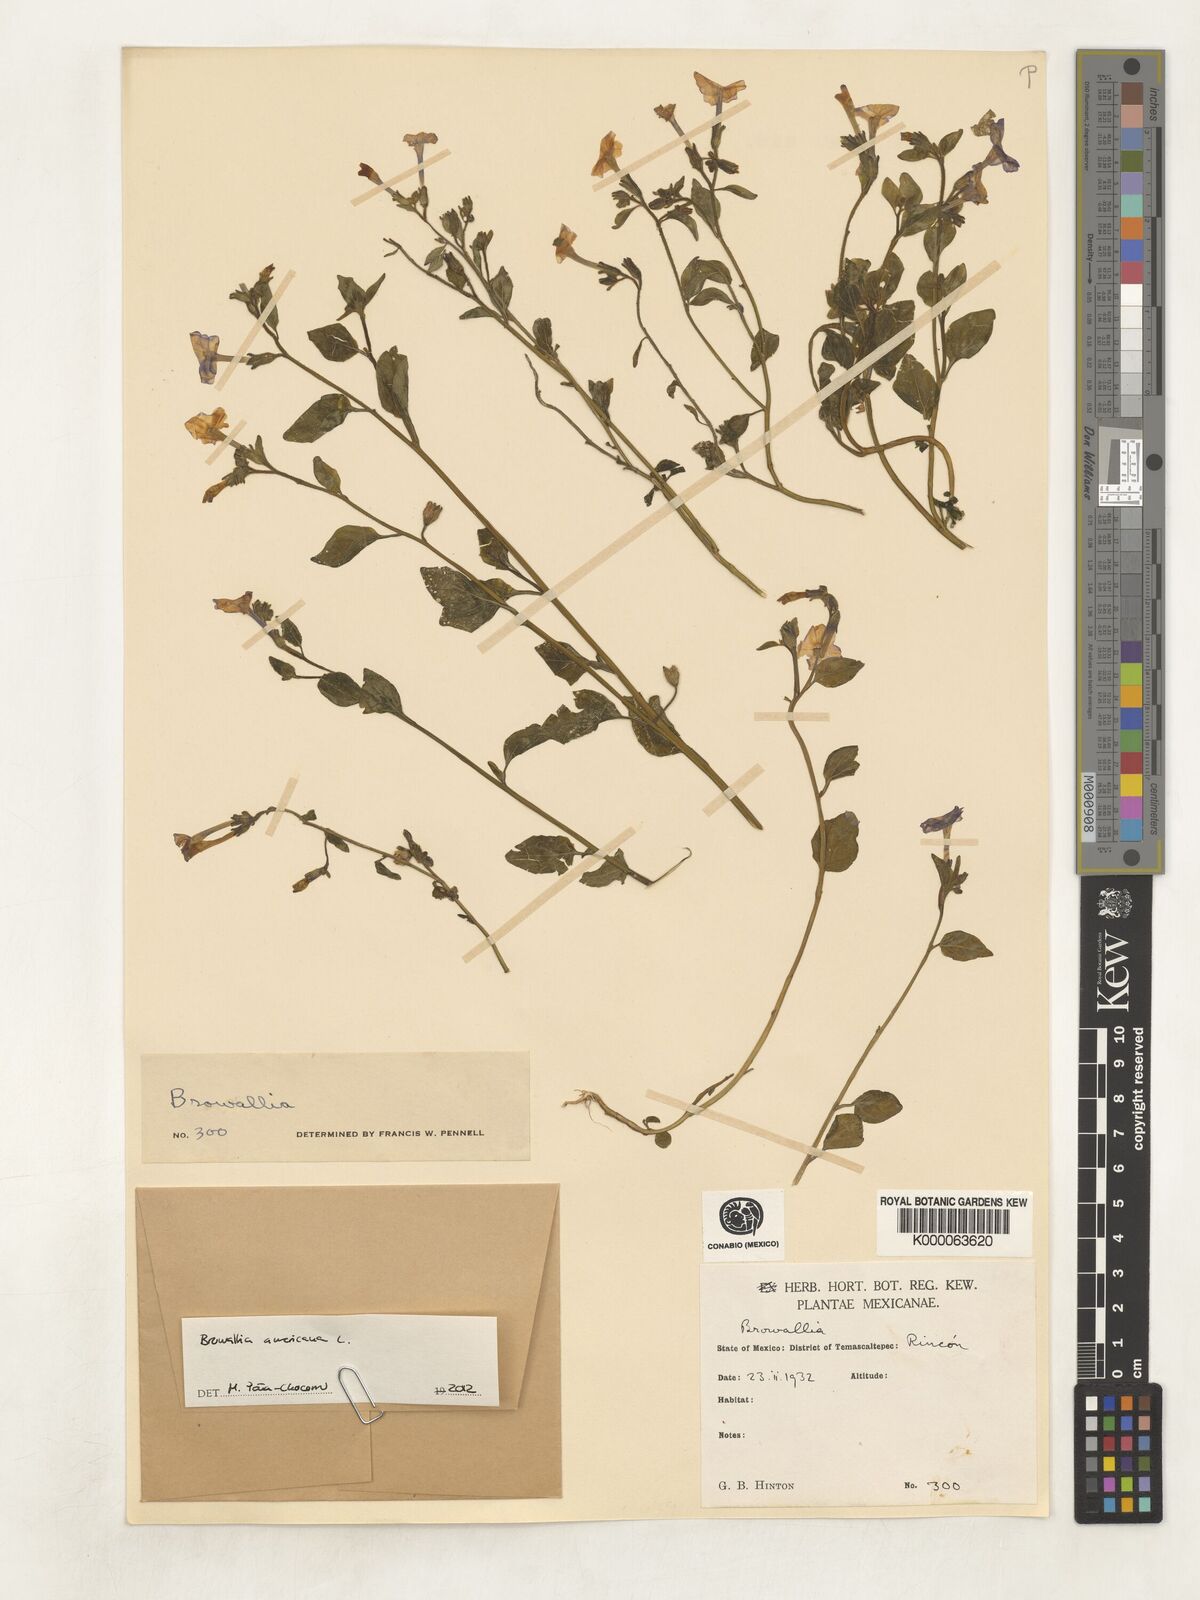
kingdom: Plantae
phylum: Tracheophyta
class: Magnoliopsida
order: Solanales
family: Solanaceae
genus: Browallia
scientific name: Browallia
